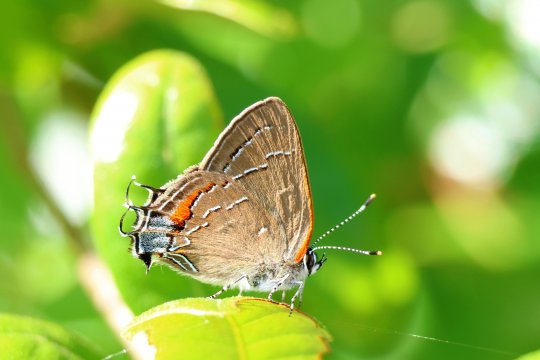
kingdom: Animalia
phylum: Arthropoda
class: Insecta
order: Lepidoptera
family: Lycaenidae
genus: Fixsenia
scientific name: Fixsenia favonius
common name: Oak Hairstreak
